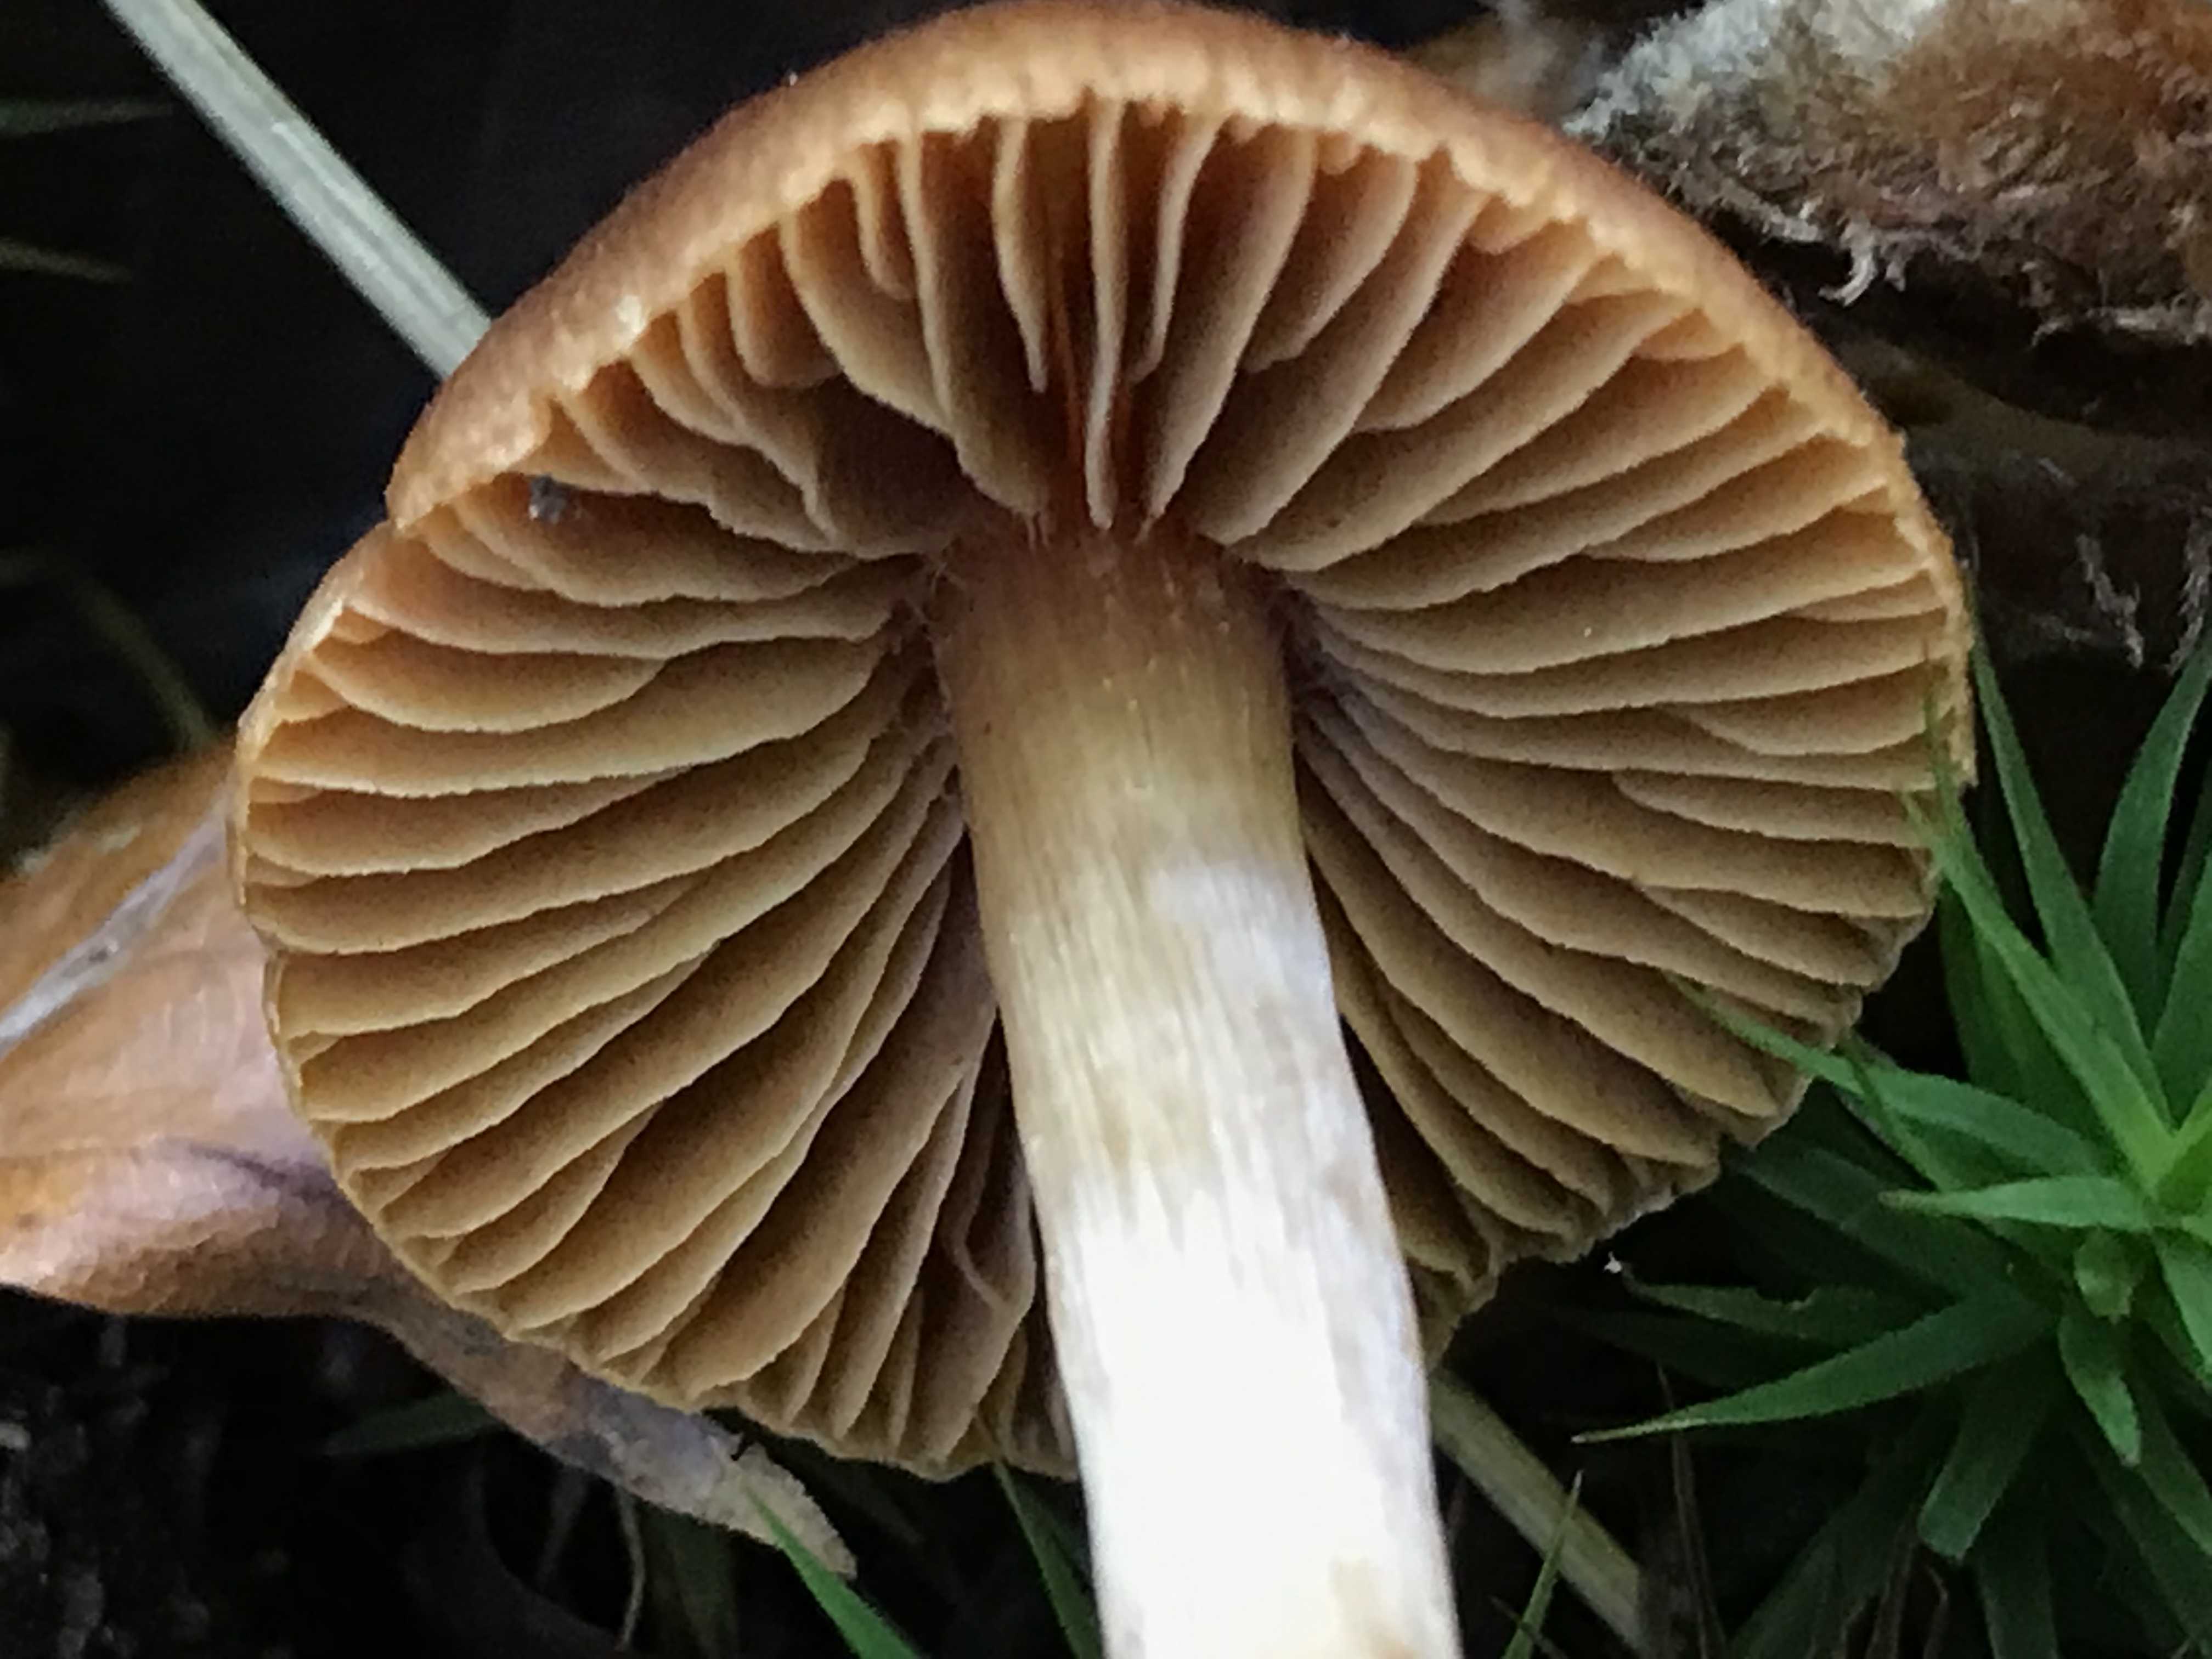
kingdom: Fungi
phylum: Basidiomycota
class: Agaricomycetes
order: Agaricales
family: Cortinariaceae
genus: Cortinarius
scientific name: Cortinarius
